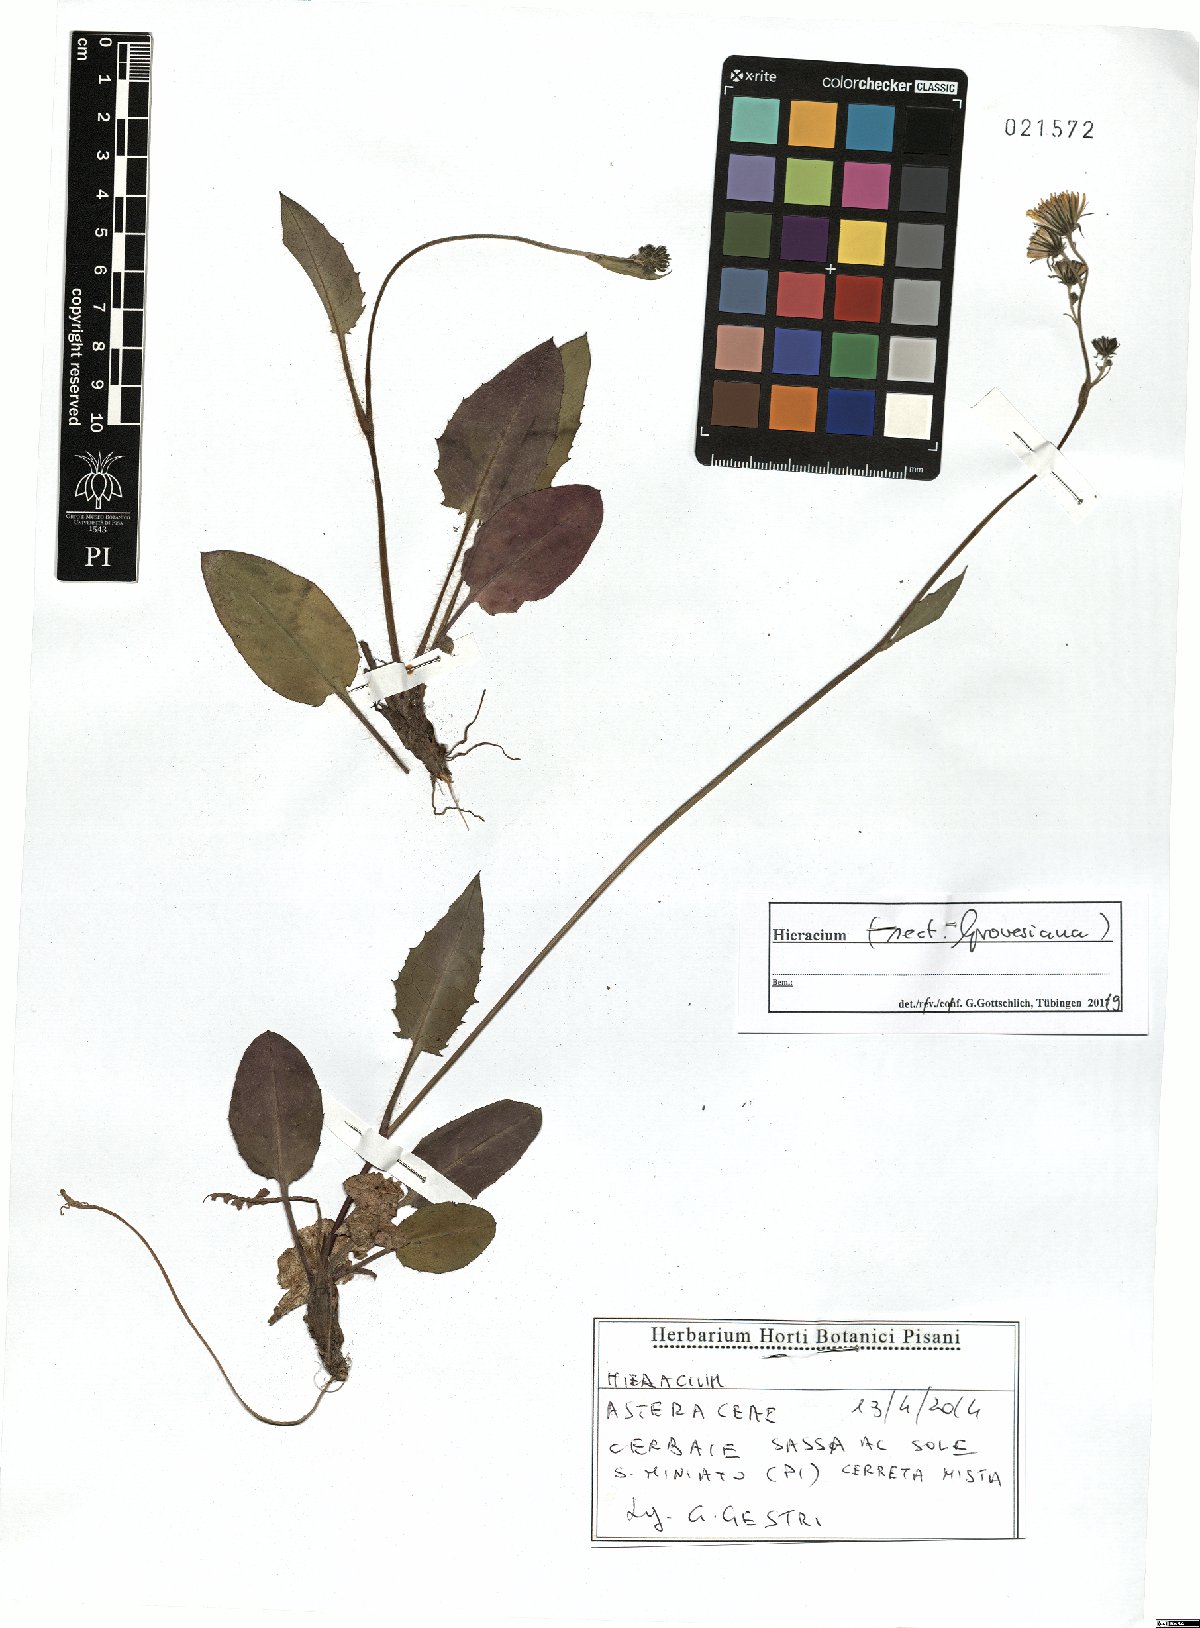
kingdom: Plantae
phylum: Tracheophyta
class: Magnoliopsida
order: Asterales
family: Asteraceae
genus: Hieracium
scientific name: Hieracium grovesianum
